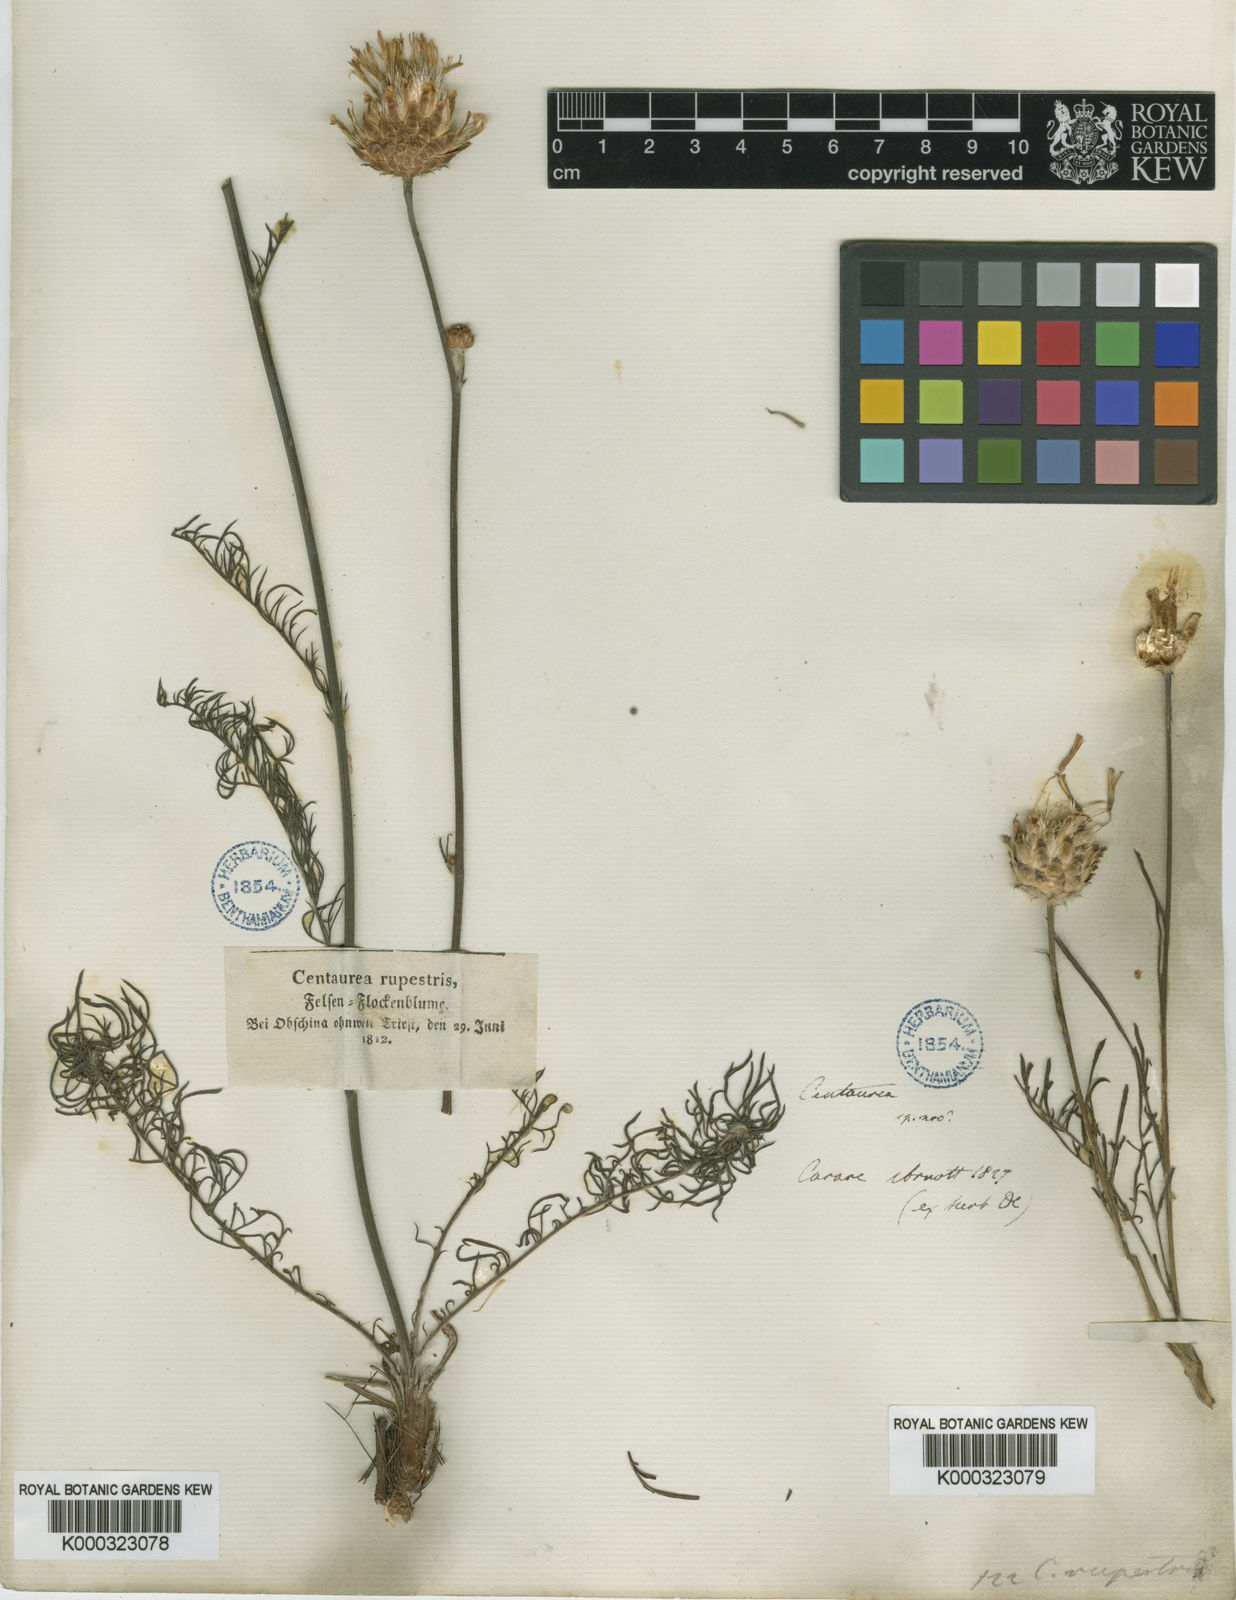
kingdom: Plantae
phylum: Tracheophyta
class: Magnoliopsida
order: Asterales
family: Asteraceae
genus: Centaurea
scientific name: Centaurea rupestris
